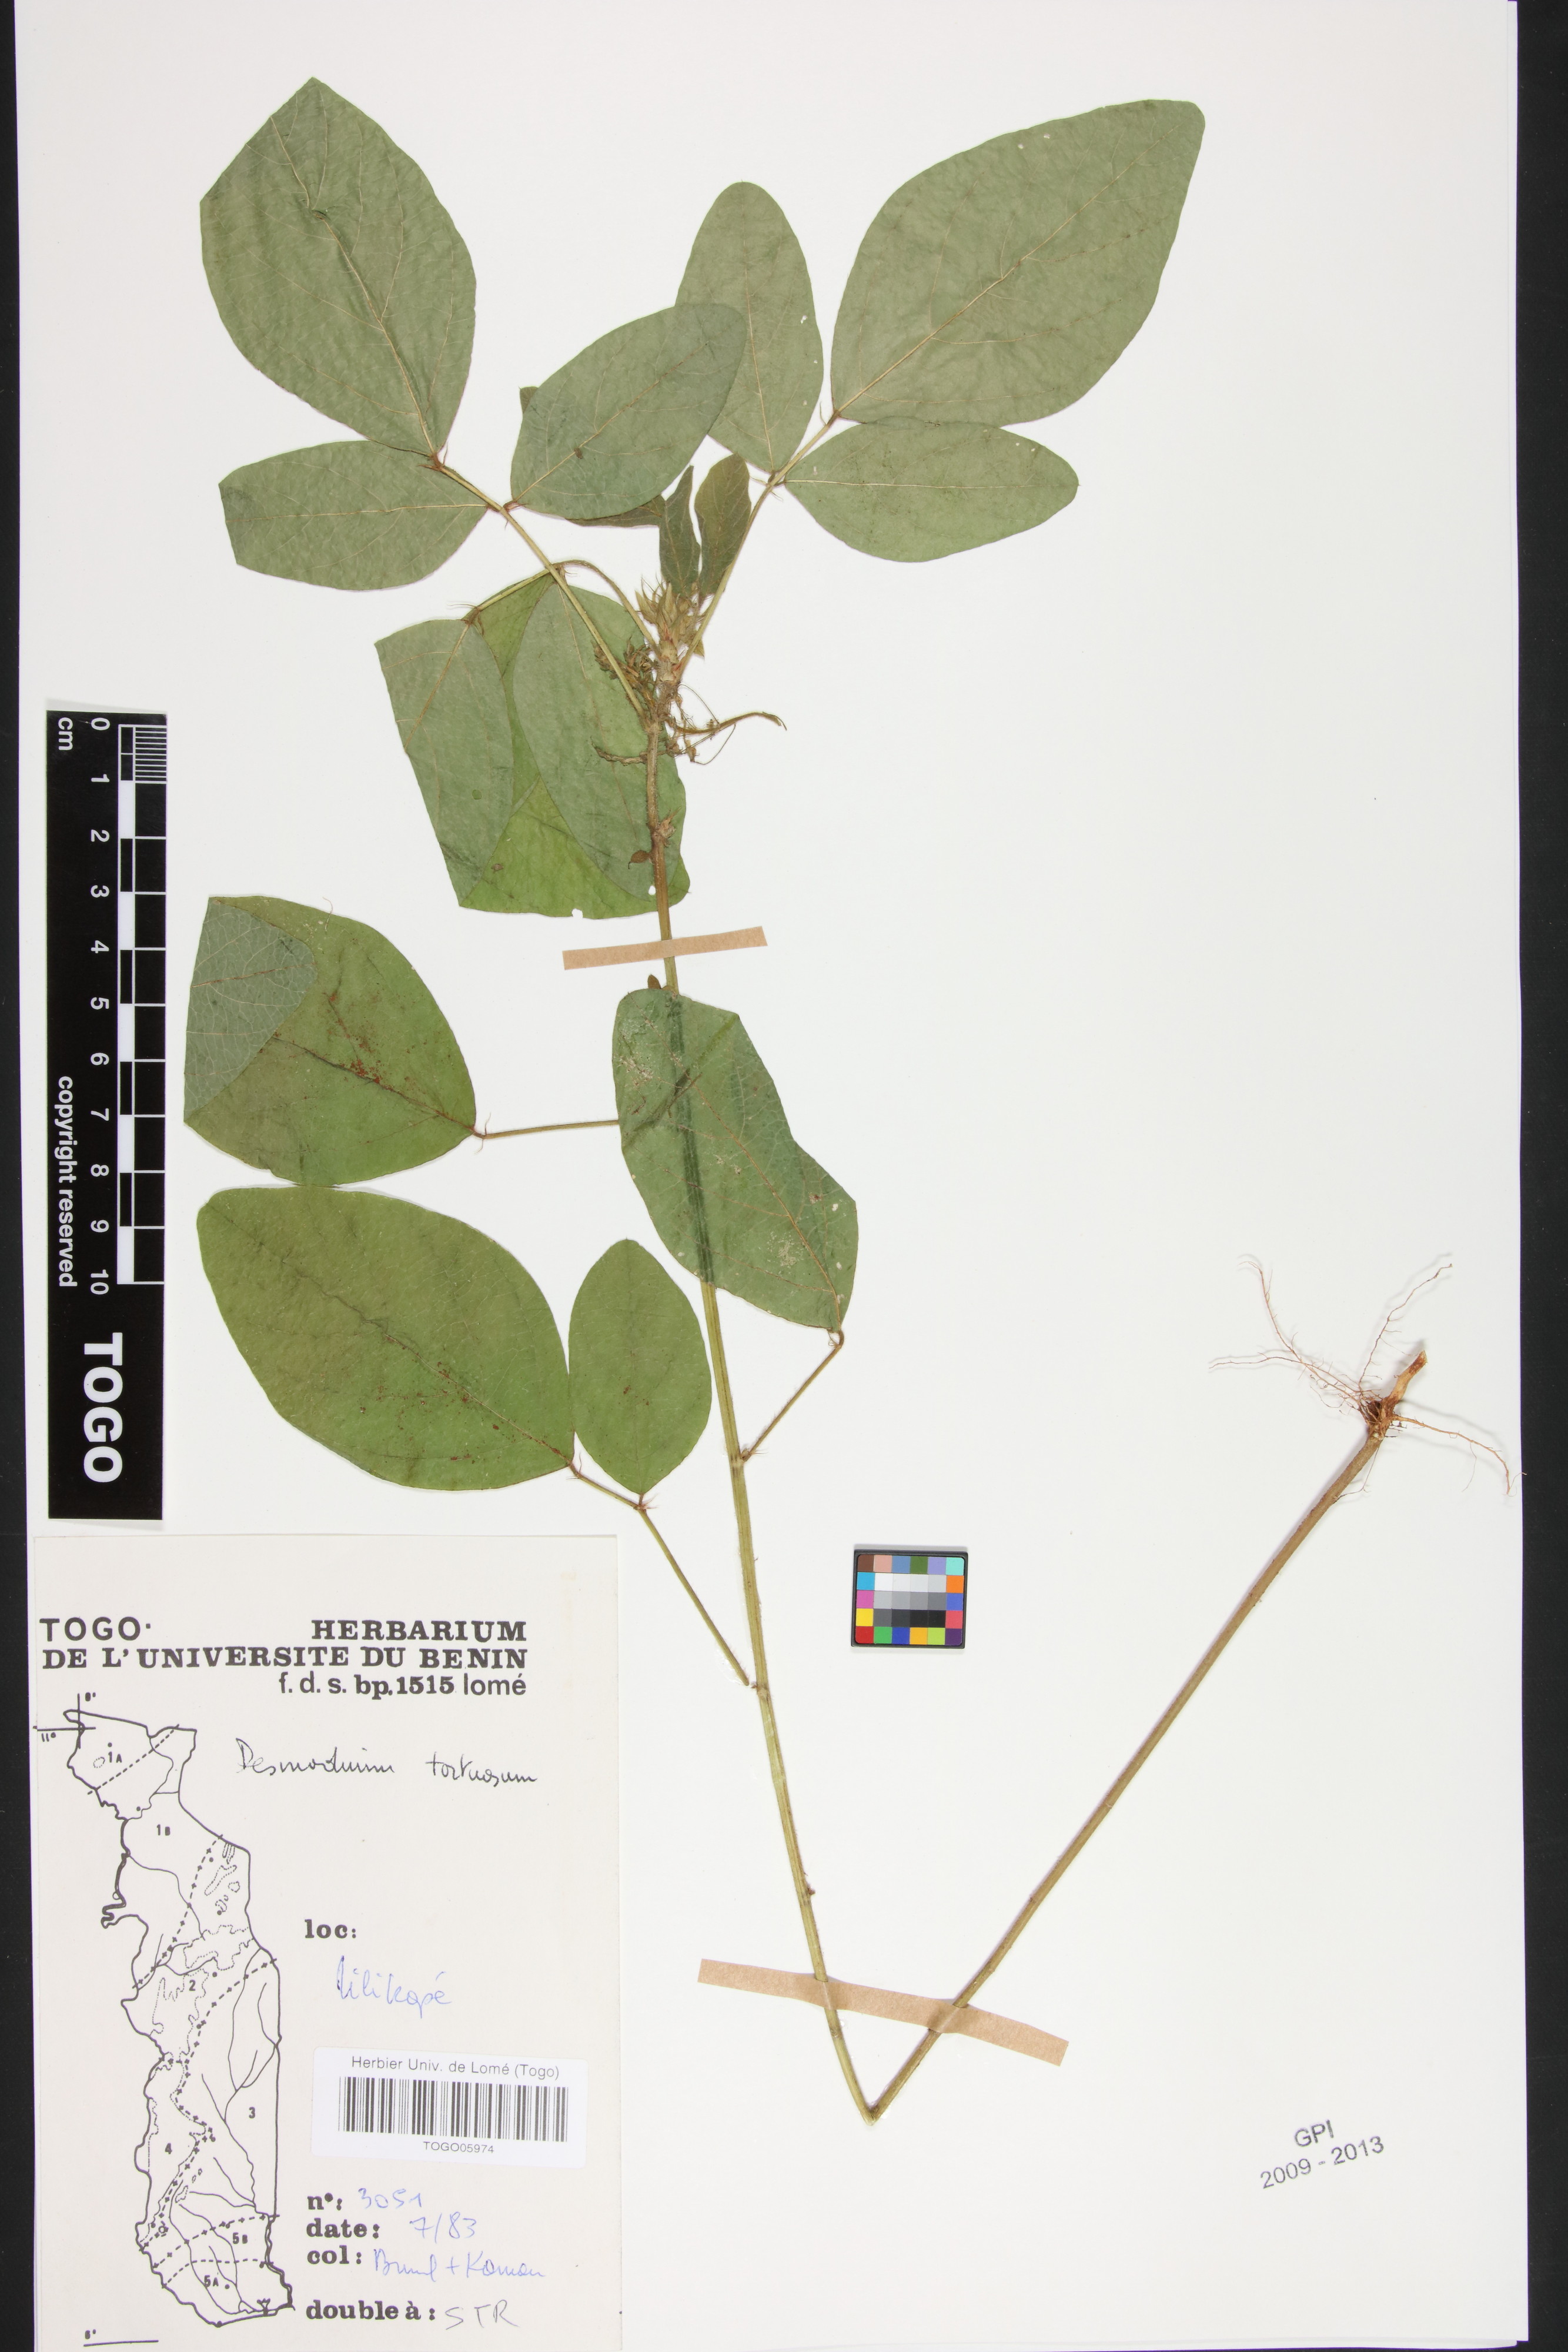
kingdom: Plantae
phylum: Tracheophyta
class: Magnoliopsida
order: Fabales
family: Fabaceae
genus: Desmodium
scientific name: Desmodium tortuosum
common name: Dixie ticktrefoil
